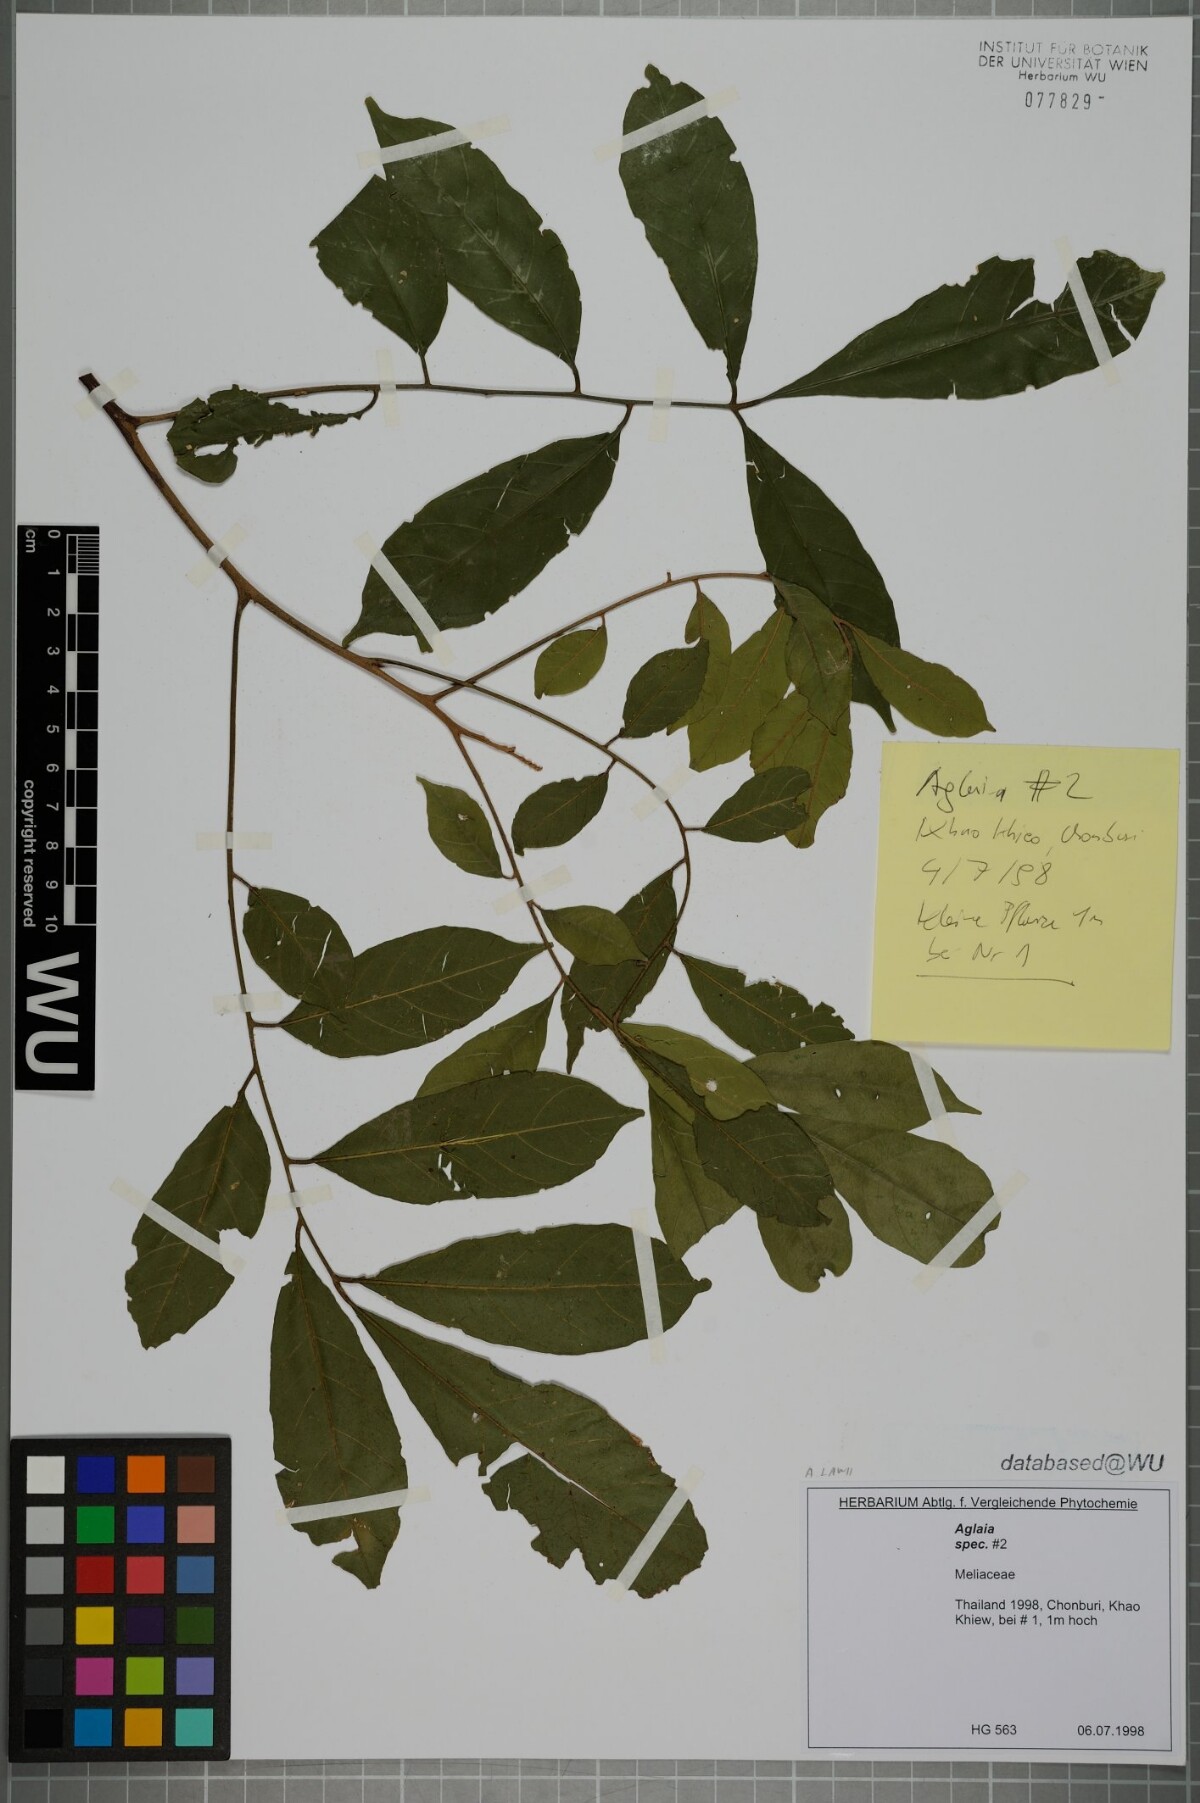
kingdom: Plantae
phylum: Tracheophyta
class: Magnoliopsida
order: Sapindales
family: Meliaceae
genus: Aglaia
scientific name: Aglaia lawii
